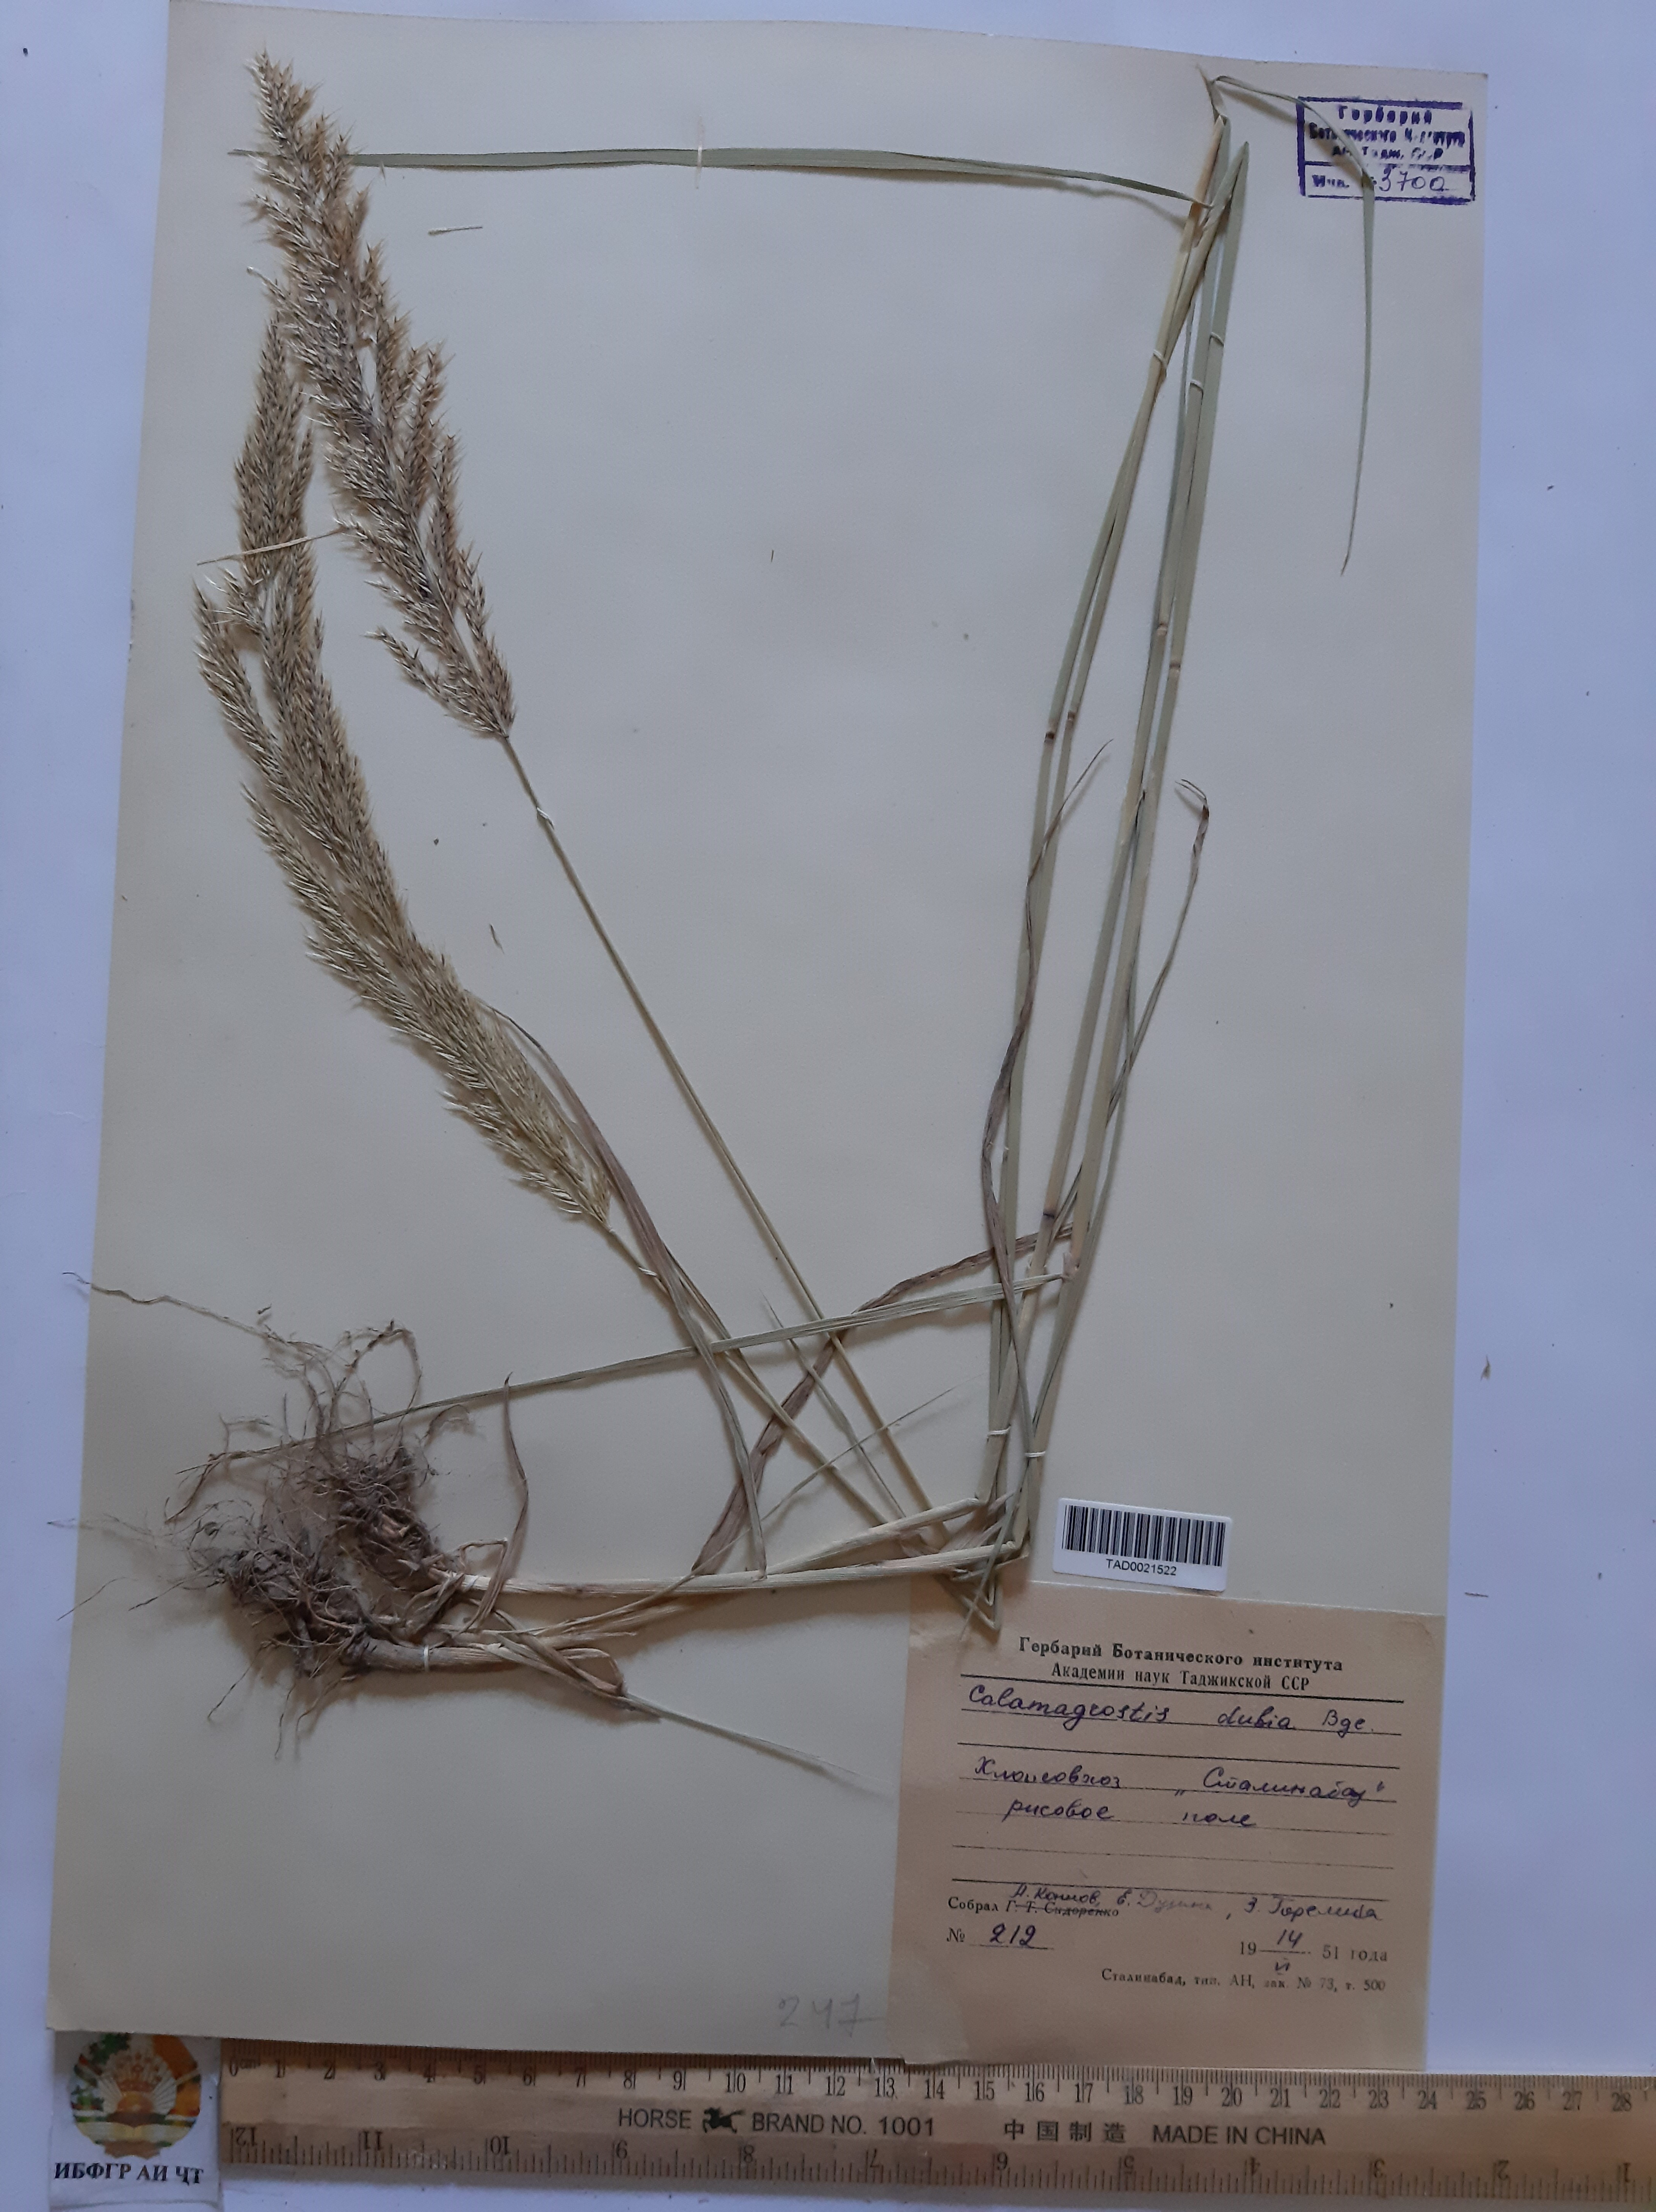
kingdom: Plantae
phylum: Tracheophyta
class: Liliopsida
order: Poales
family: Poaceae
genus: Calamagrostis
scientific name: Calamagrostis pseudophragmites
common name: Coastal small-reed
